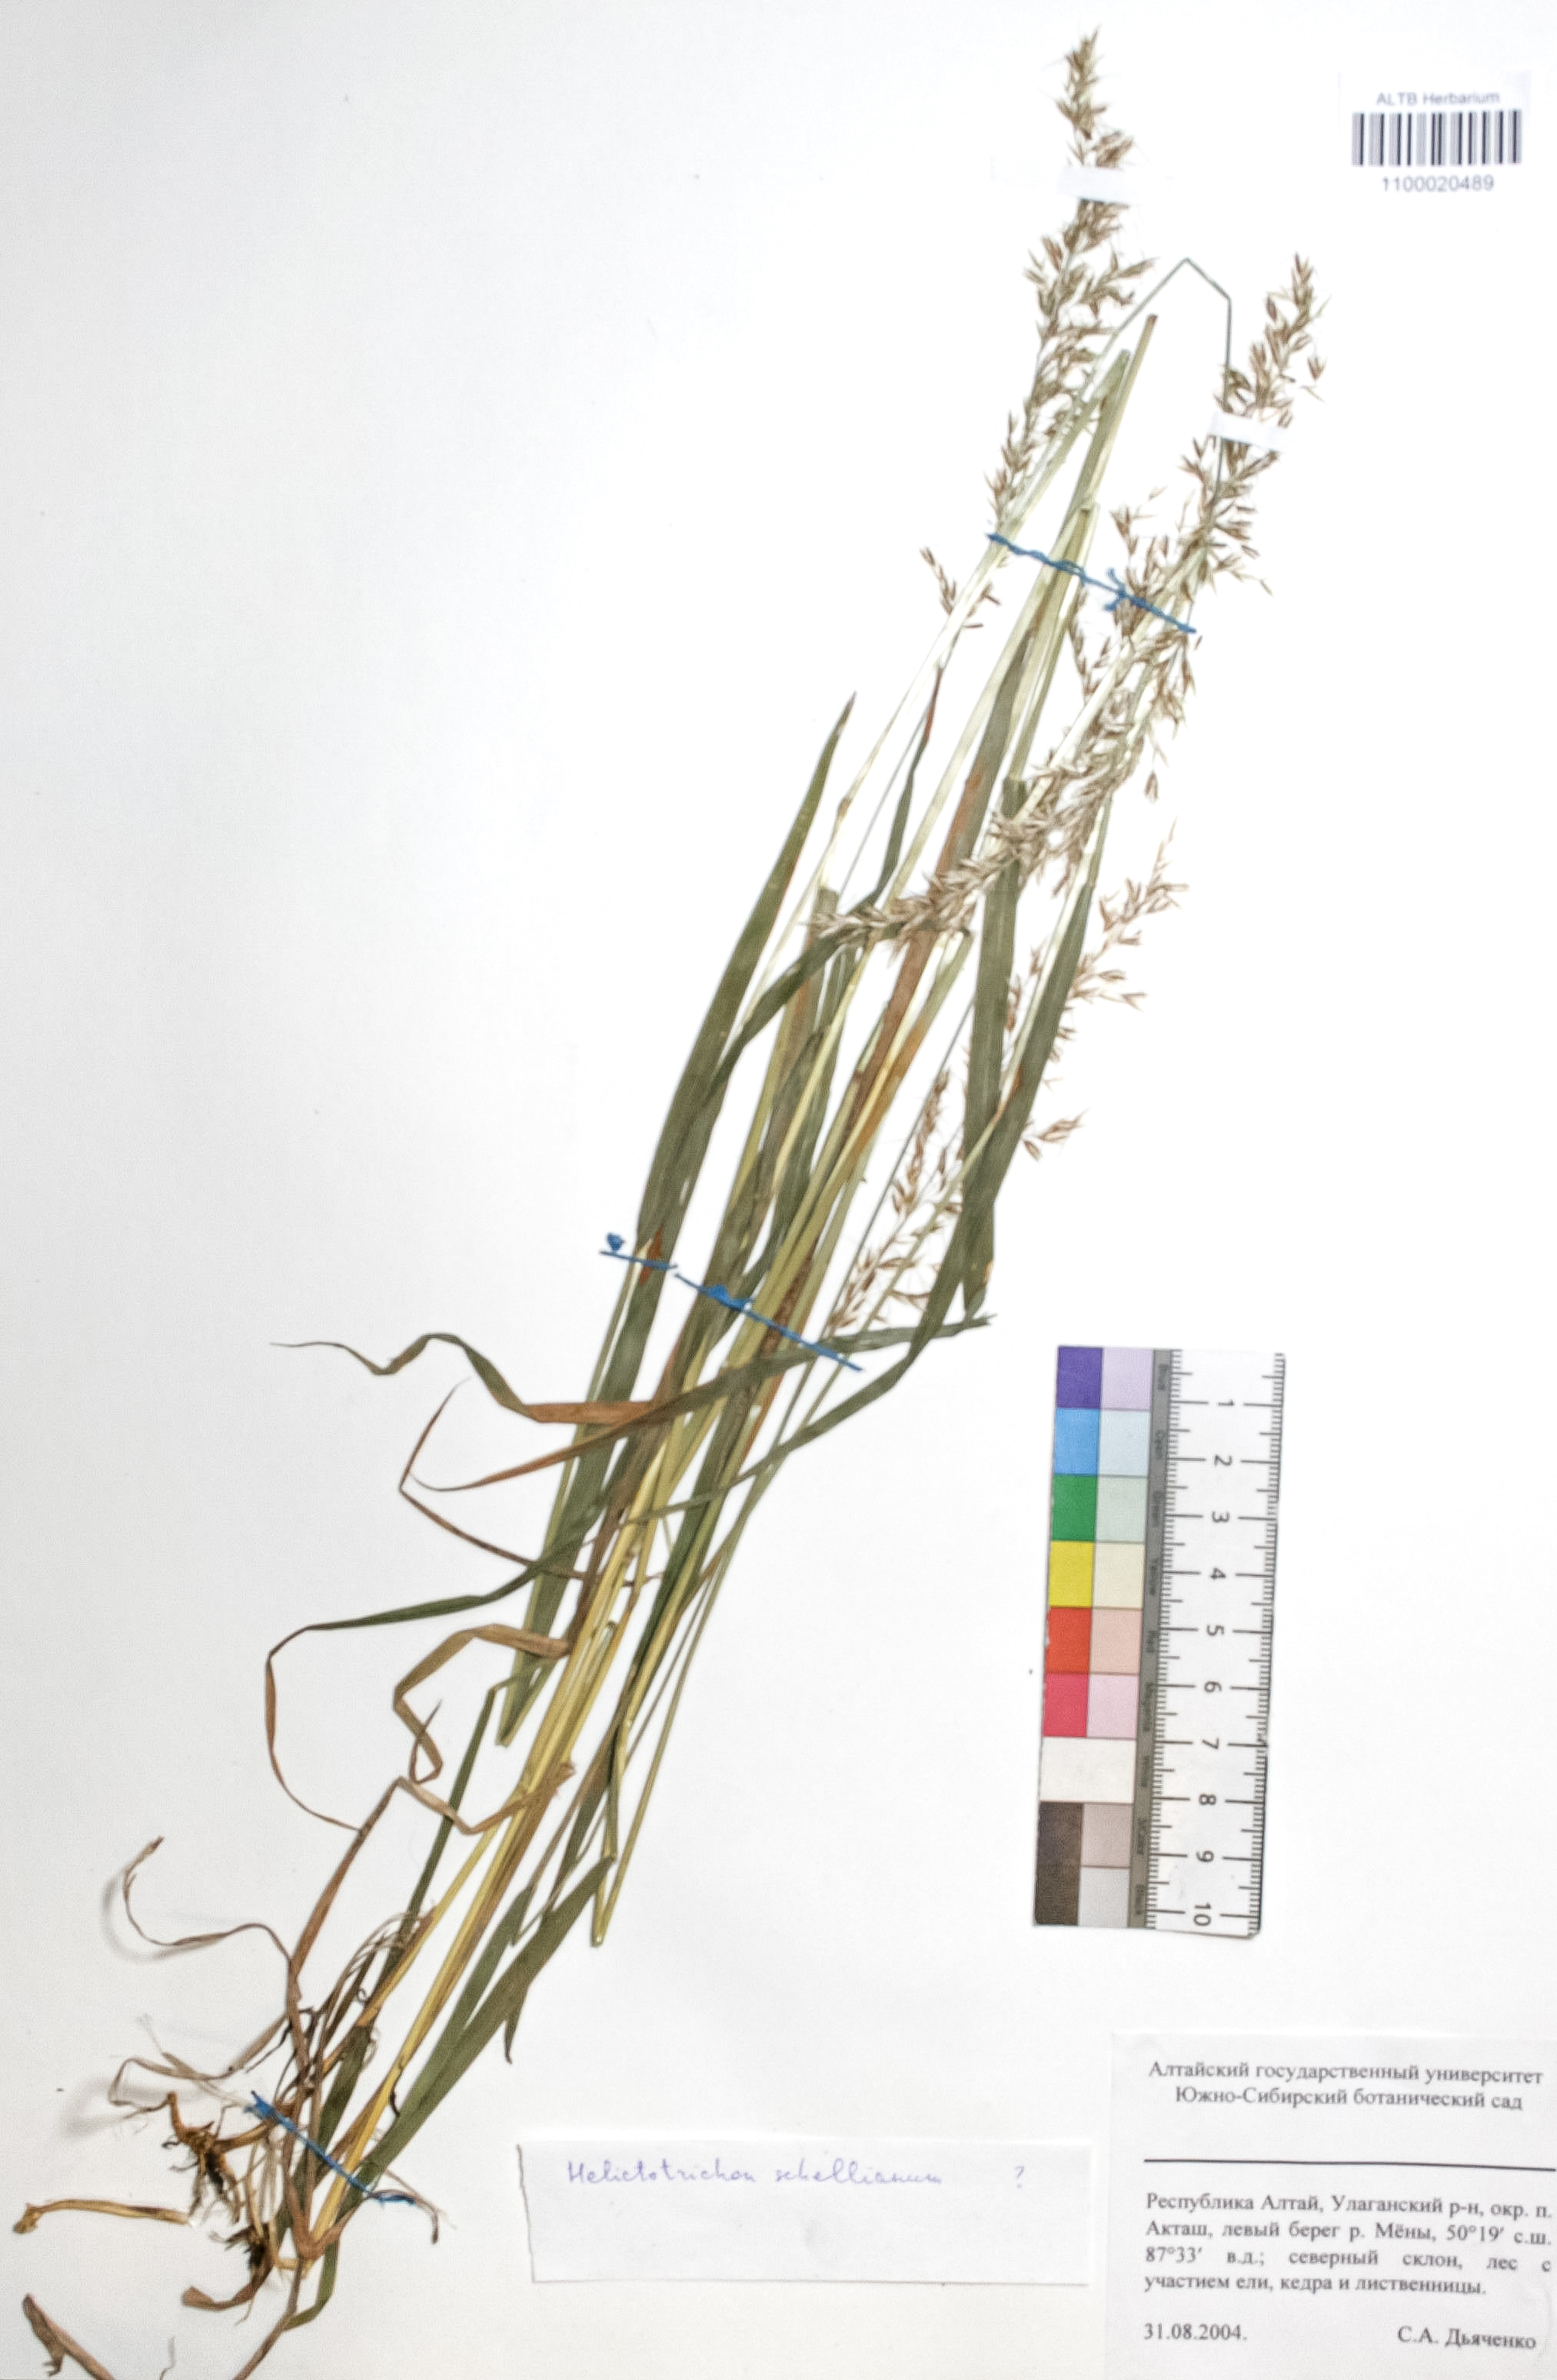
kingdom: Plantae
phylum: Tracheophyta
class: Liliopsida
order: Poales
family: Poaceae
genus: Helictochloa
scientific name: Helictochloa hookeri
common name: Hooker's alpine oatgrass
